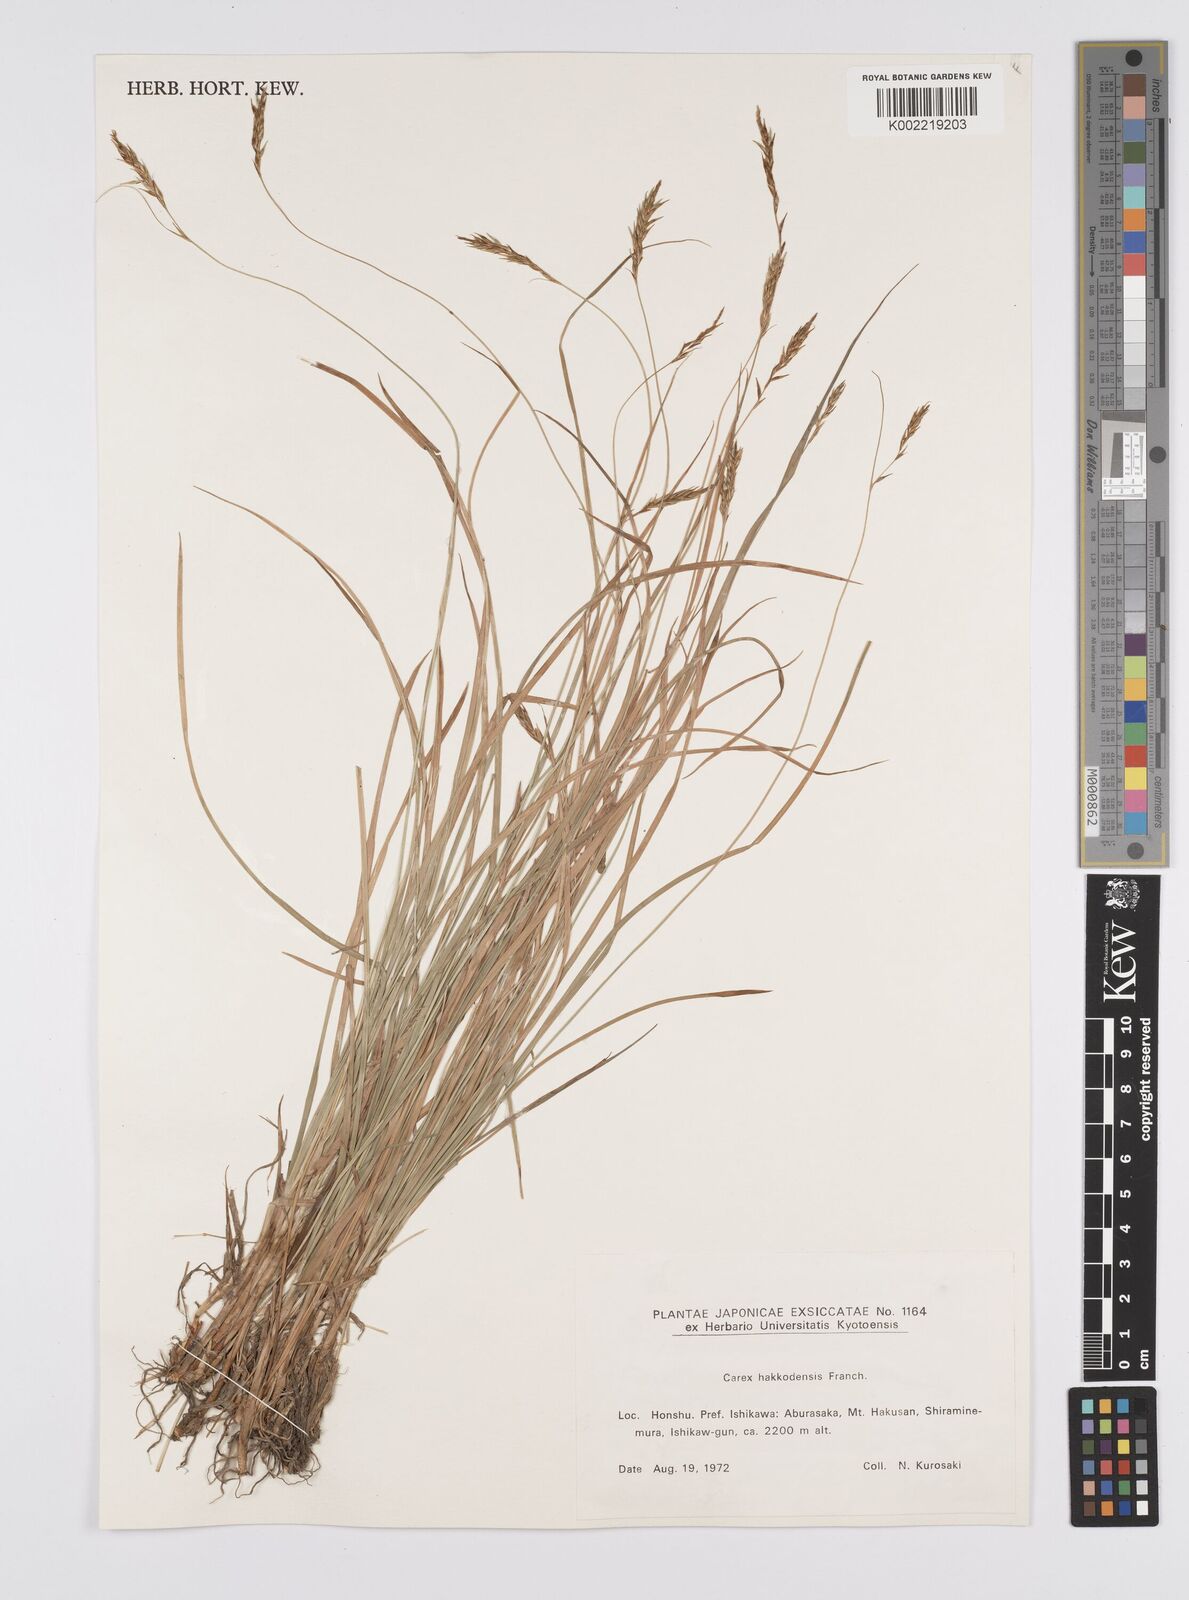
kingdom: Plantae
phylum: Tracheophyta
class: Liliopsida
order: Poales
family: Cyperaceae
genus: Carex
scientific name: Carex hakkodensis
